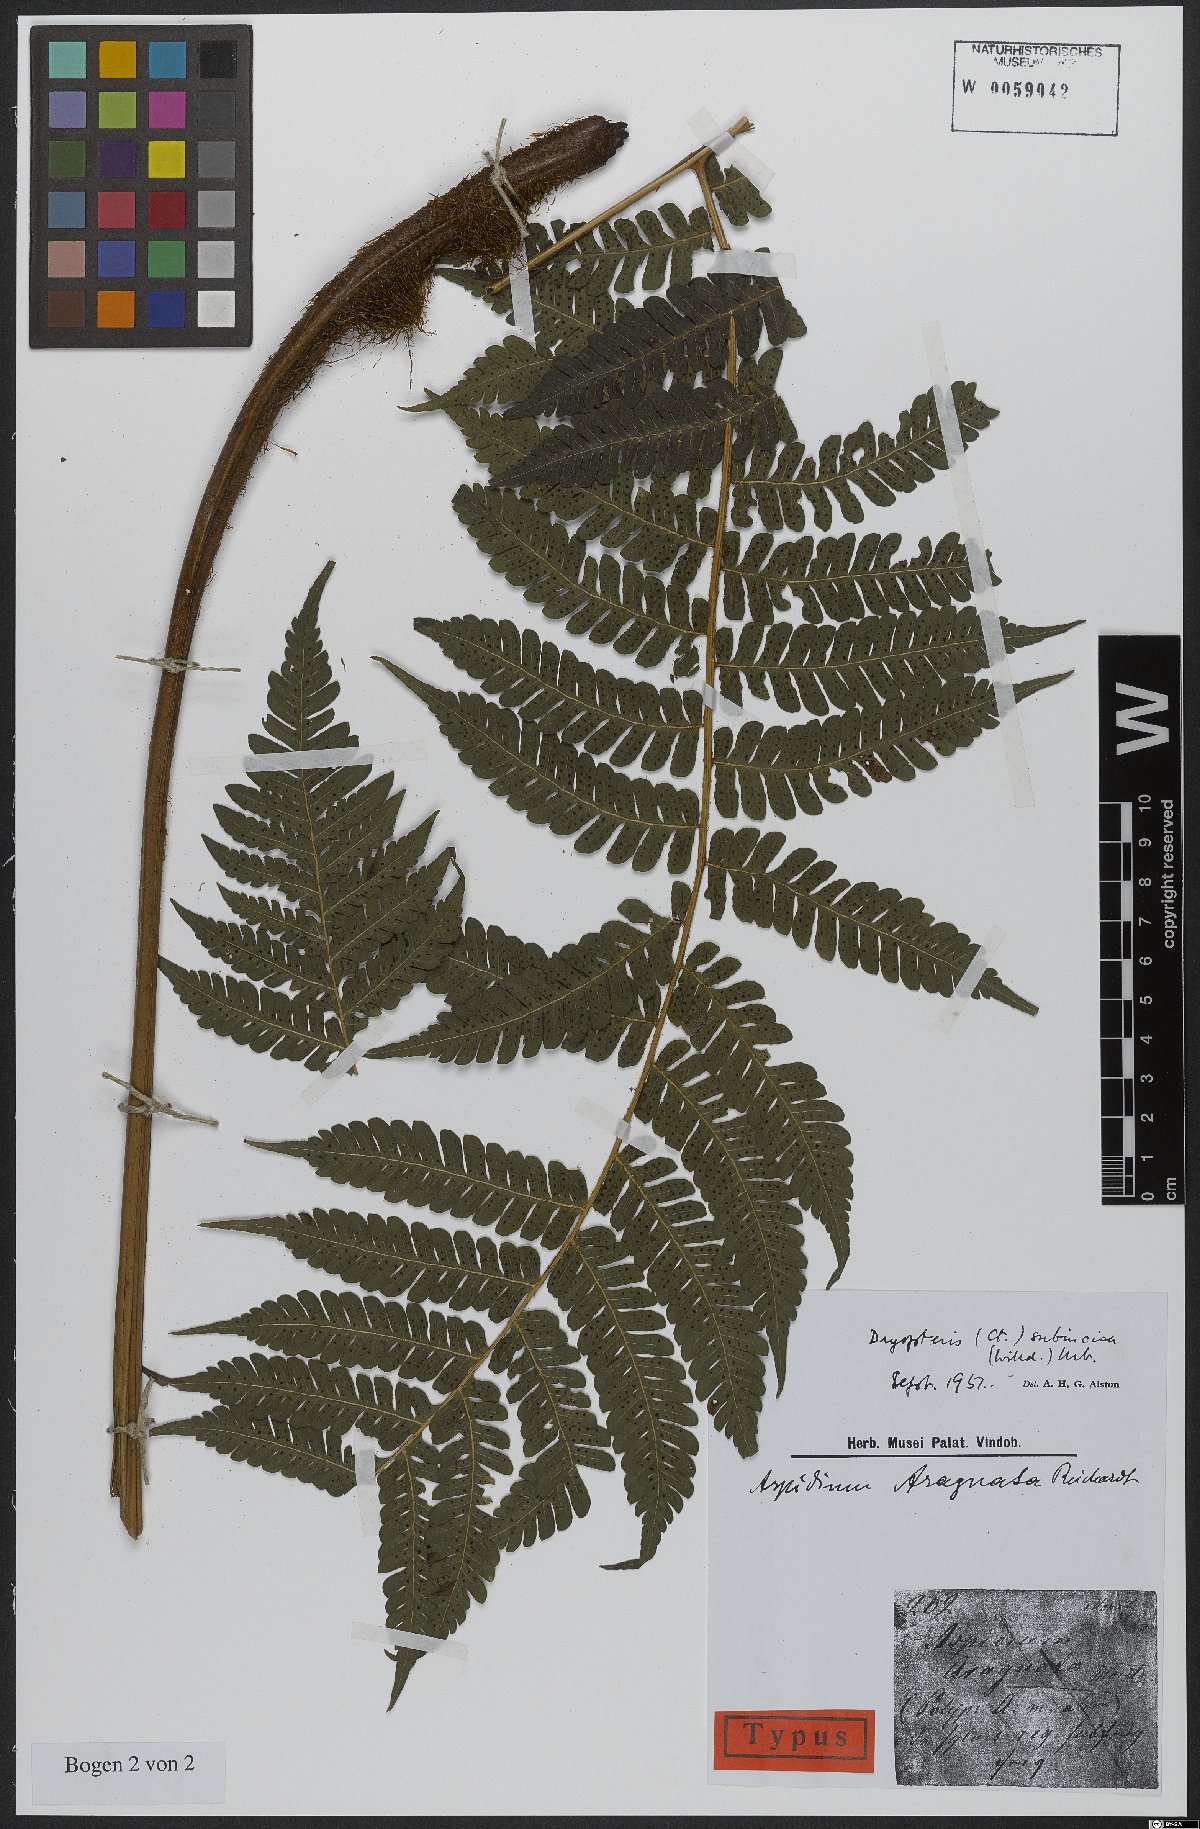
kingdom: Plantae
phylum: Tracheophyta
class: Polypodiopsida
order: Polypodiales
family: Dryopteridaceae
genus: Megalastrum
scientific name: Megalastrum subincisum
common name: Jagleaf junglefern
